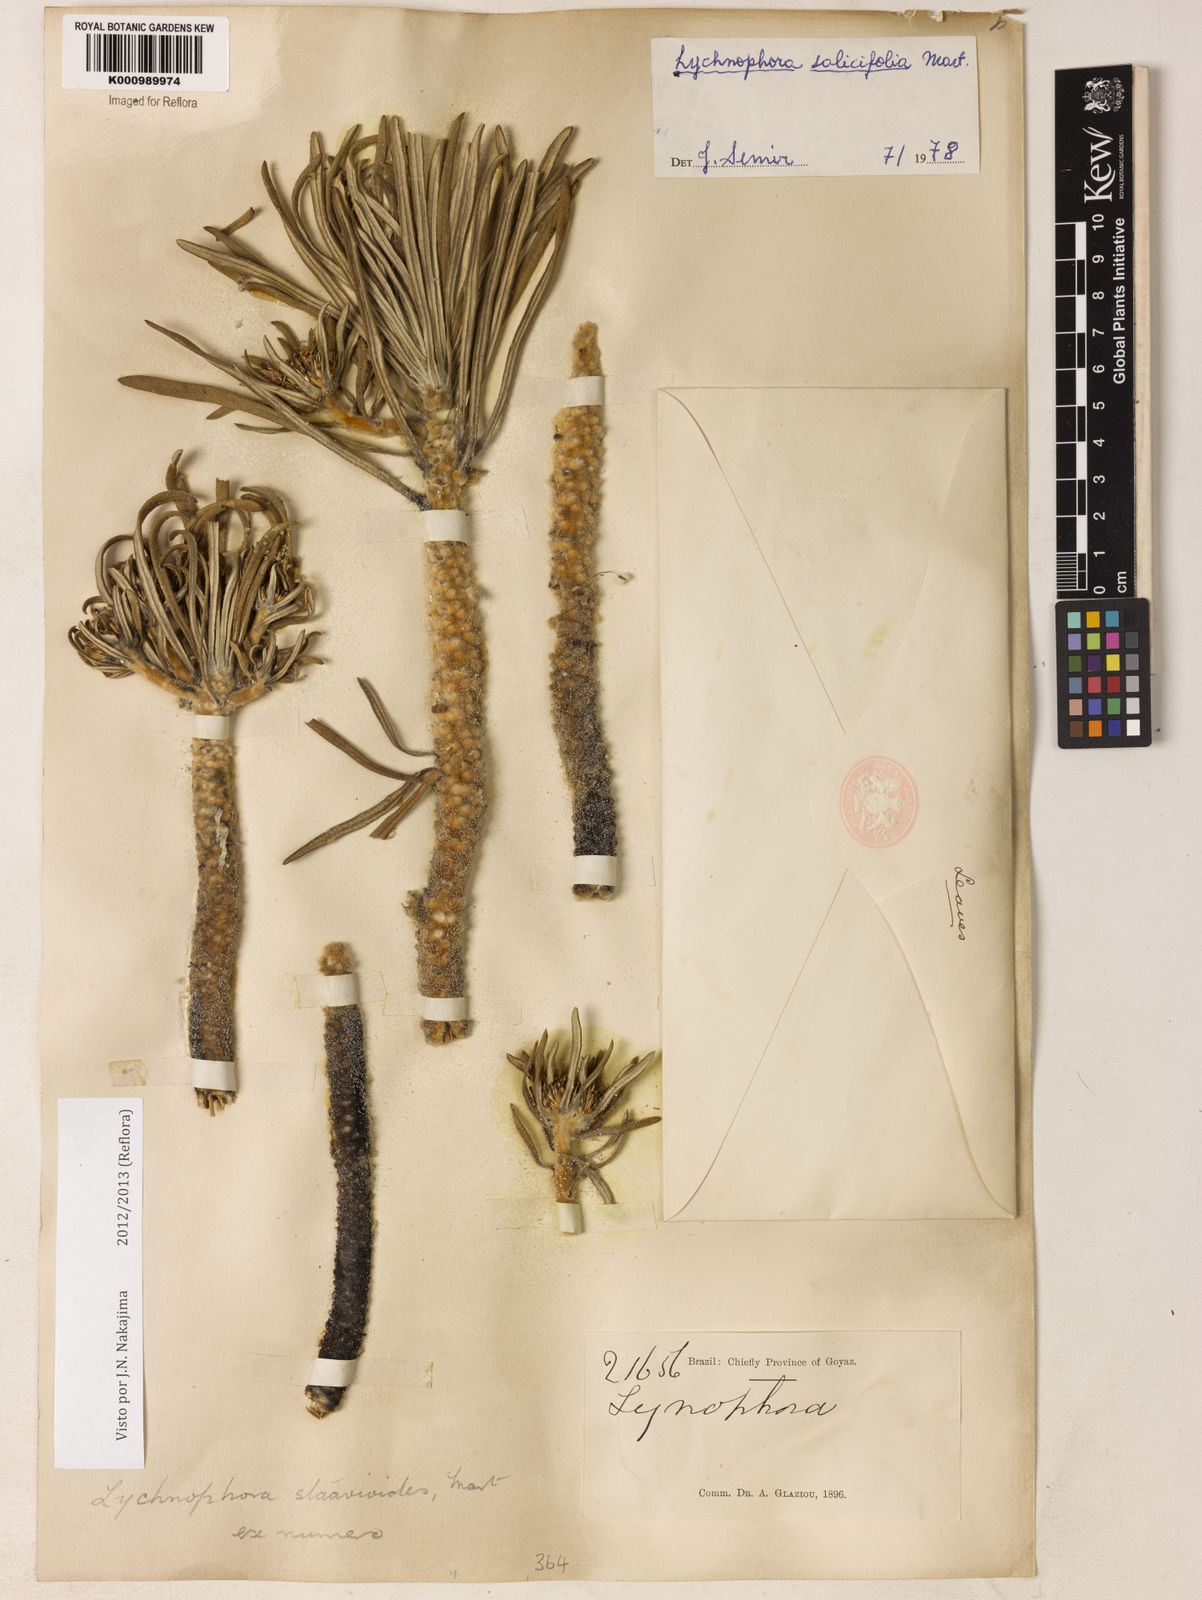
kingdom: Plantae
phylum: Tracheophyta
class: Magnoliopsida
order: Asterales
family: Asteraceae
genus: Lychnophora
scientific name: Lychnophora salicifolia
